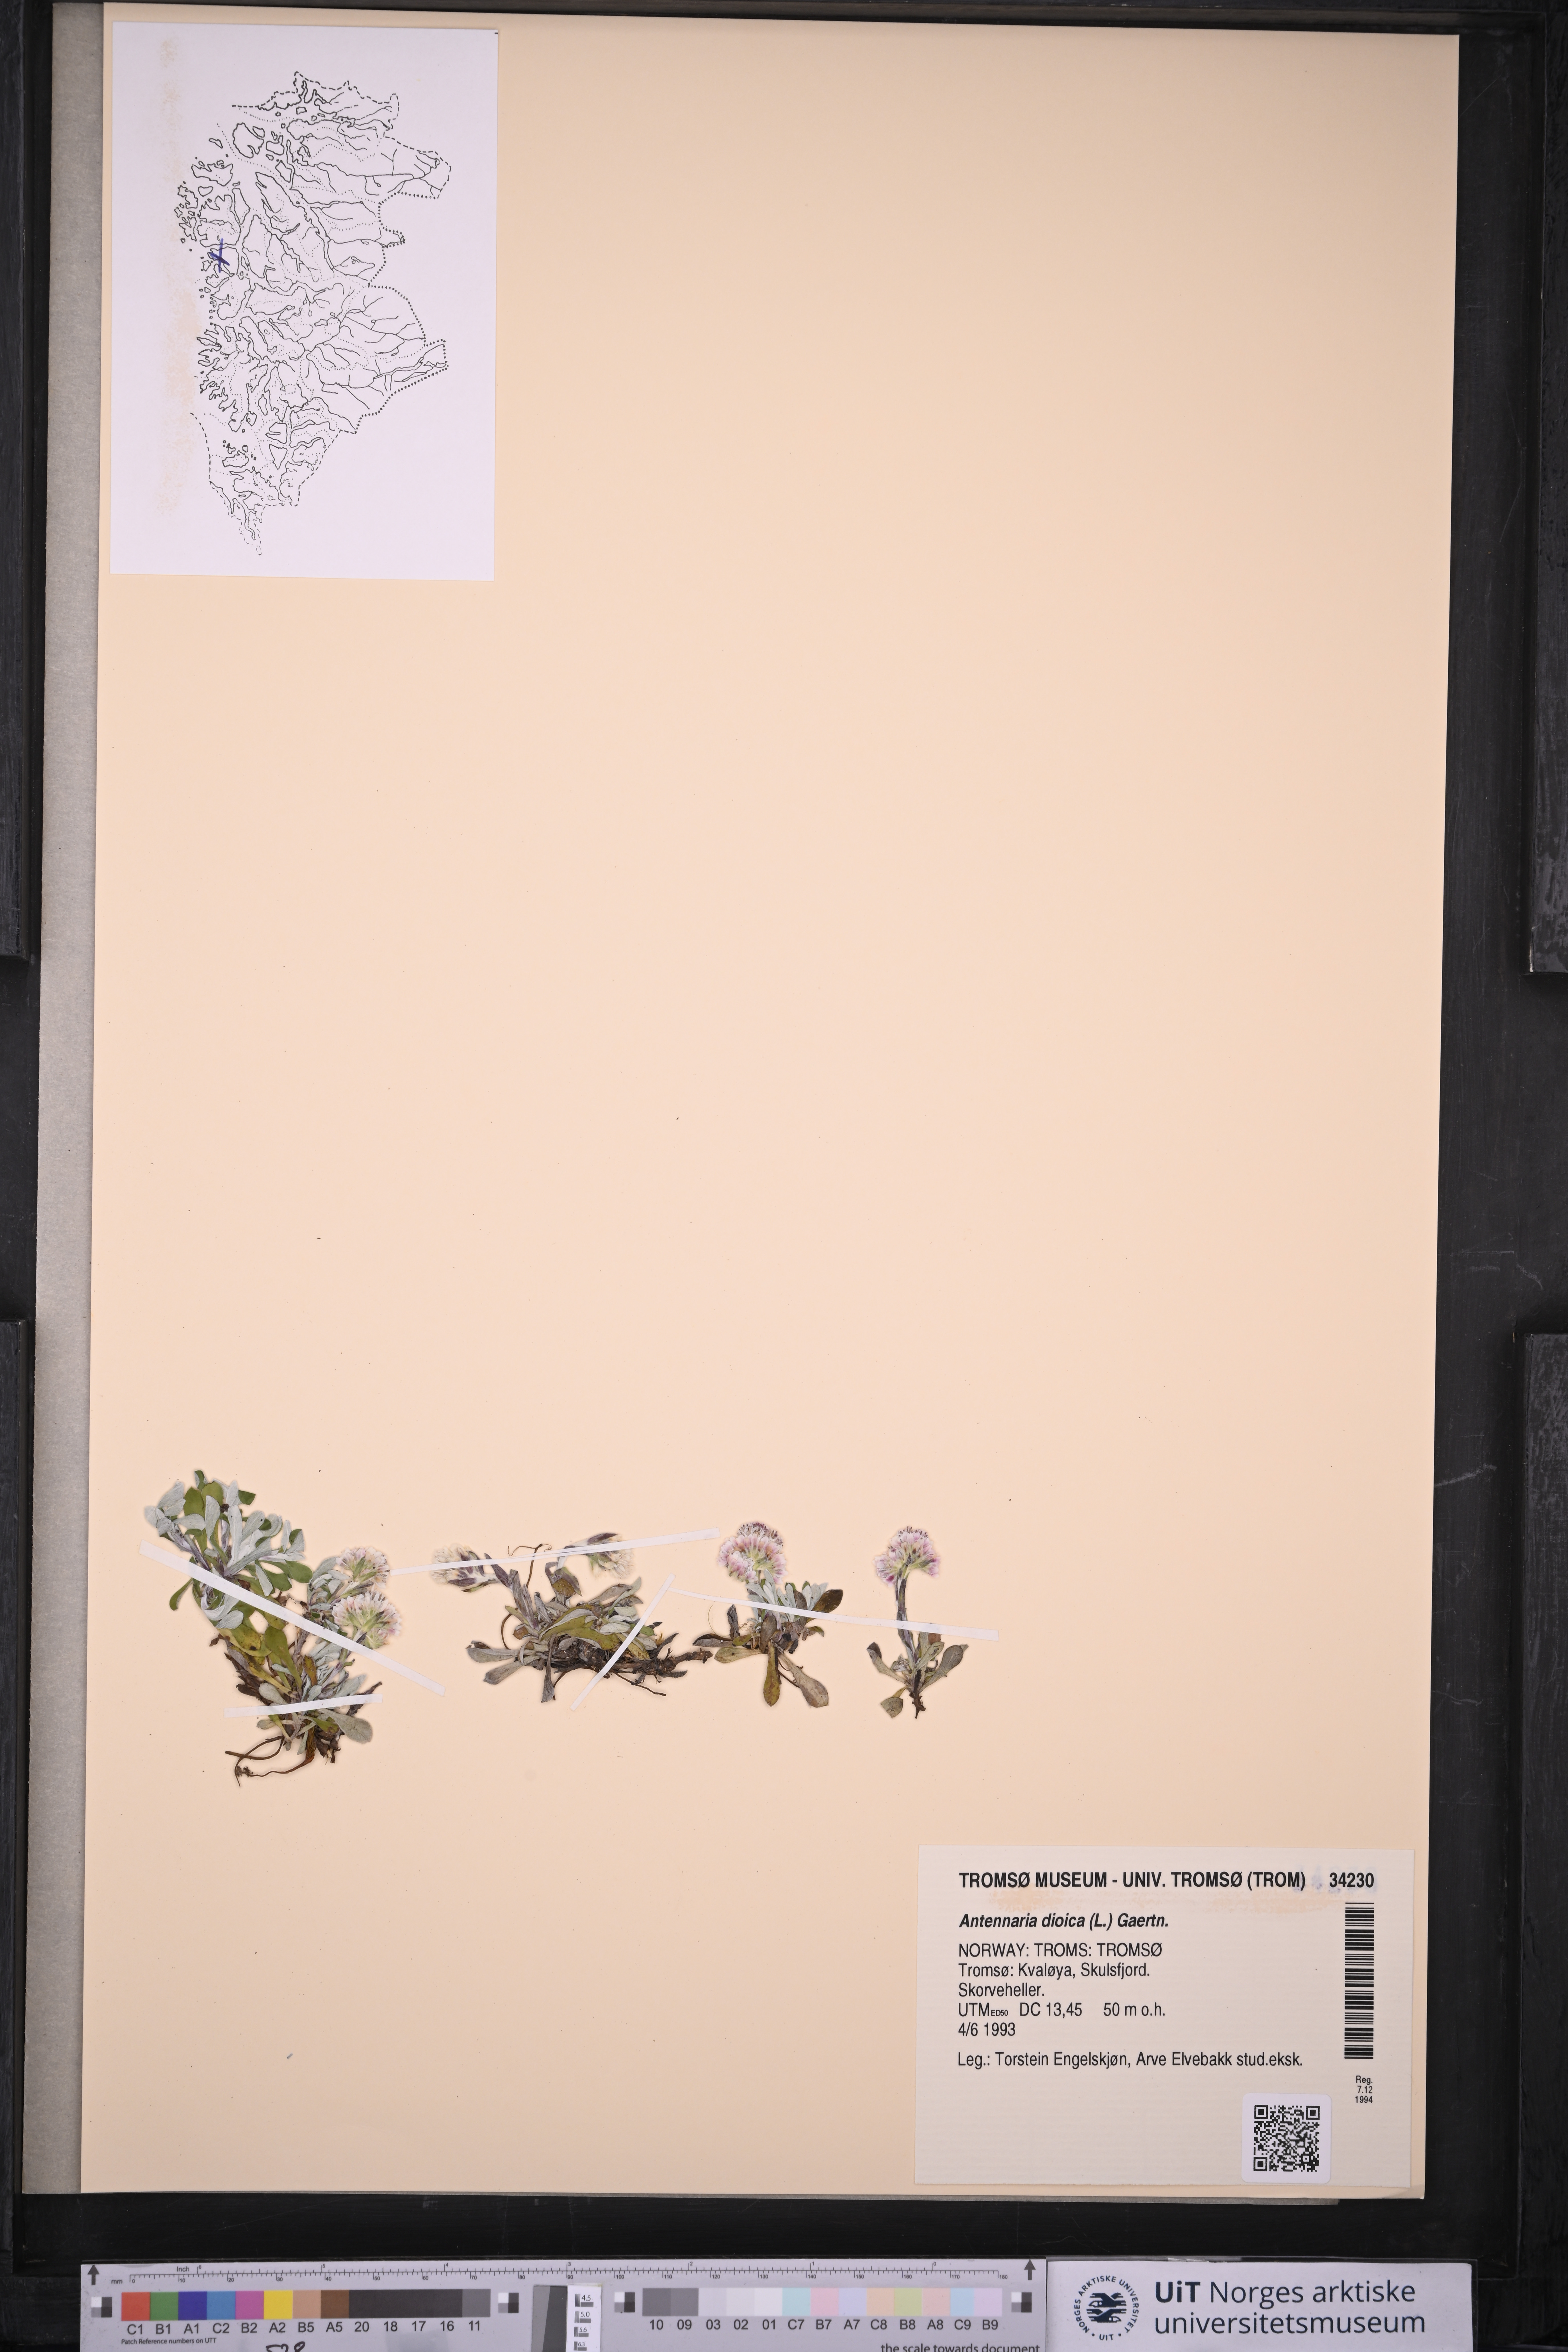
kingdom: Plantae
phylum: Tracheophyta
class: Magnoliopsida
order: Asterales
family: Asteraceae
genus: Antennaria
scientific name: Antennaria dioica
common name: Mountain everlasting
